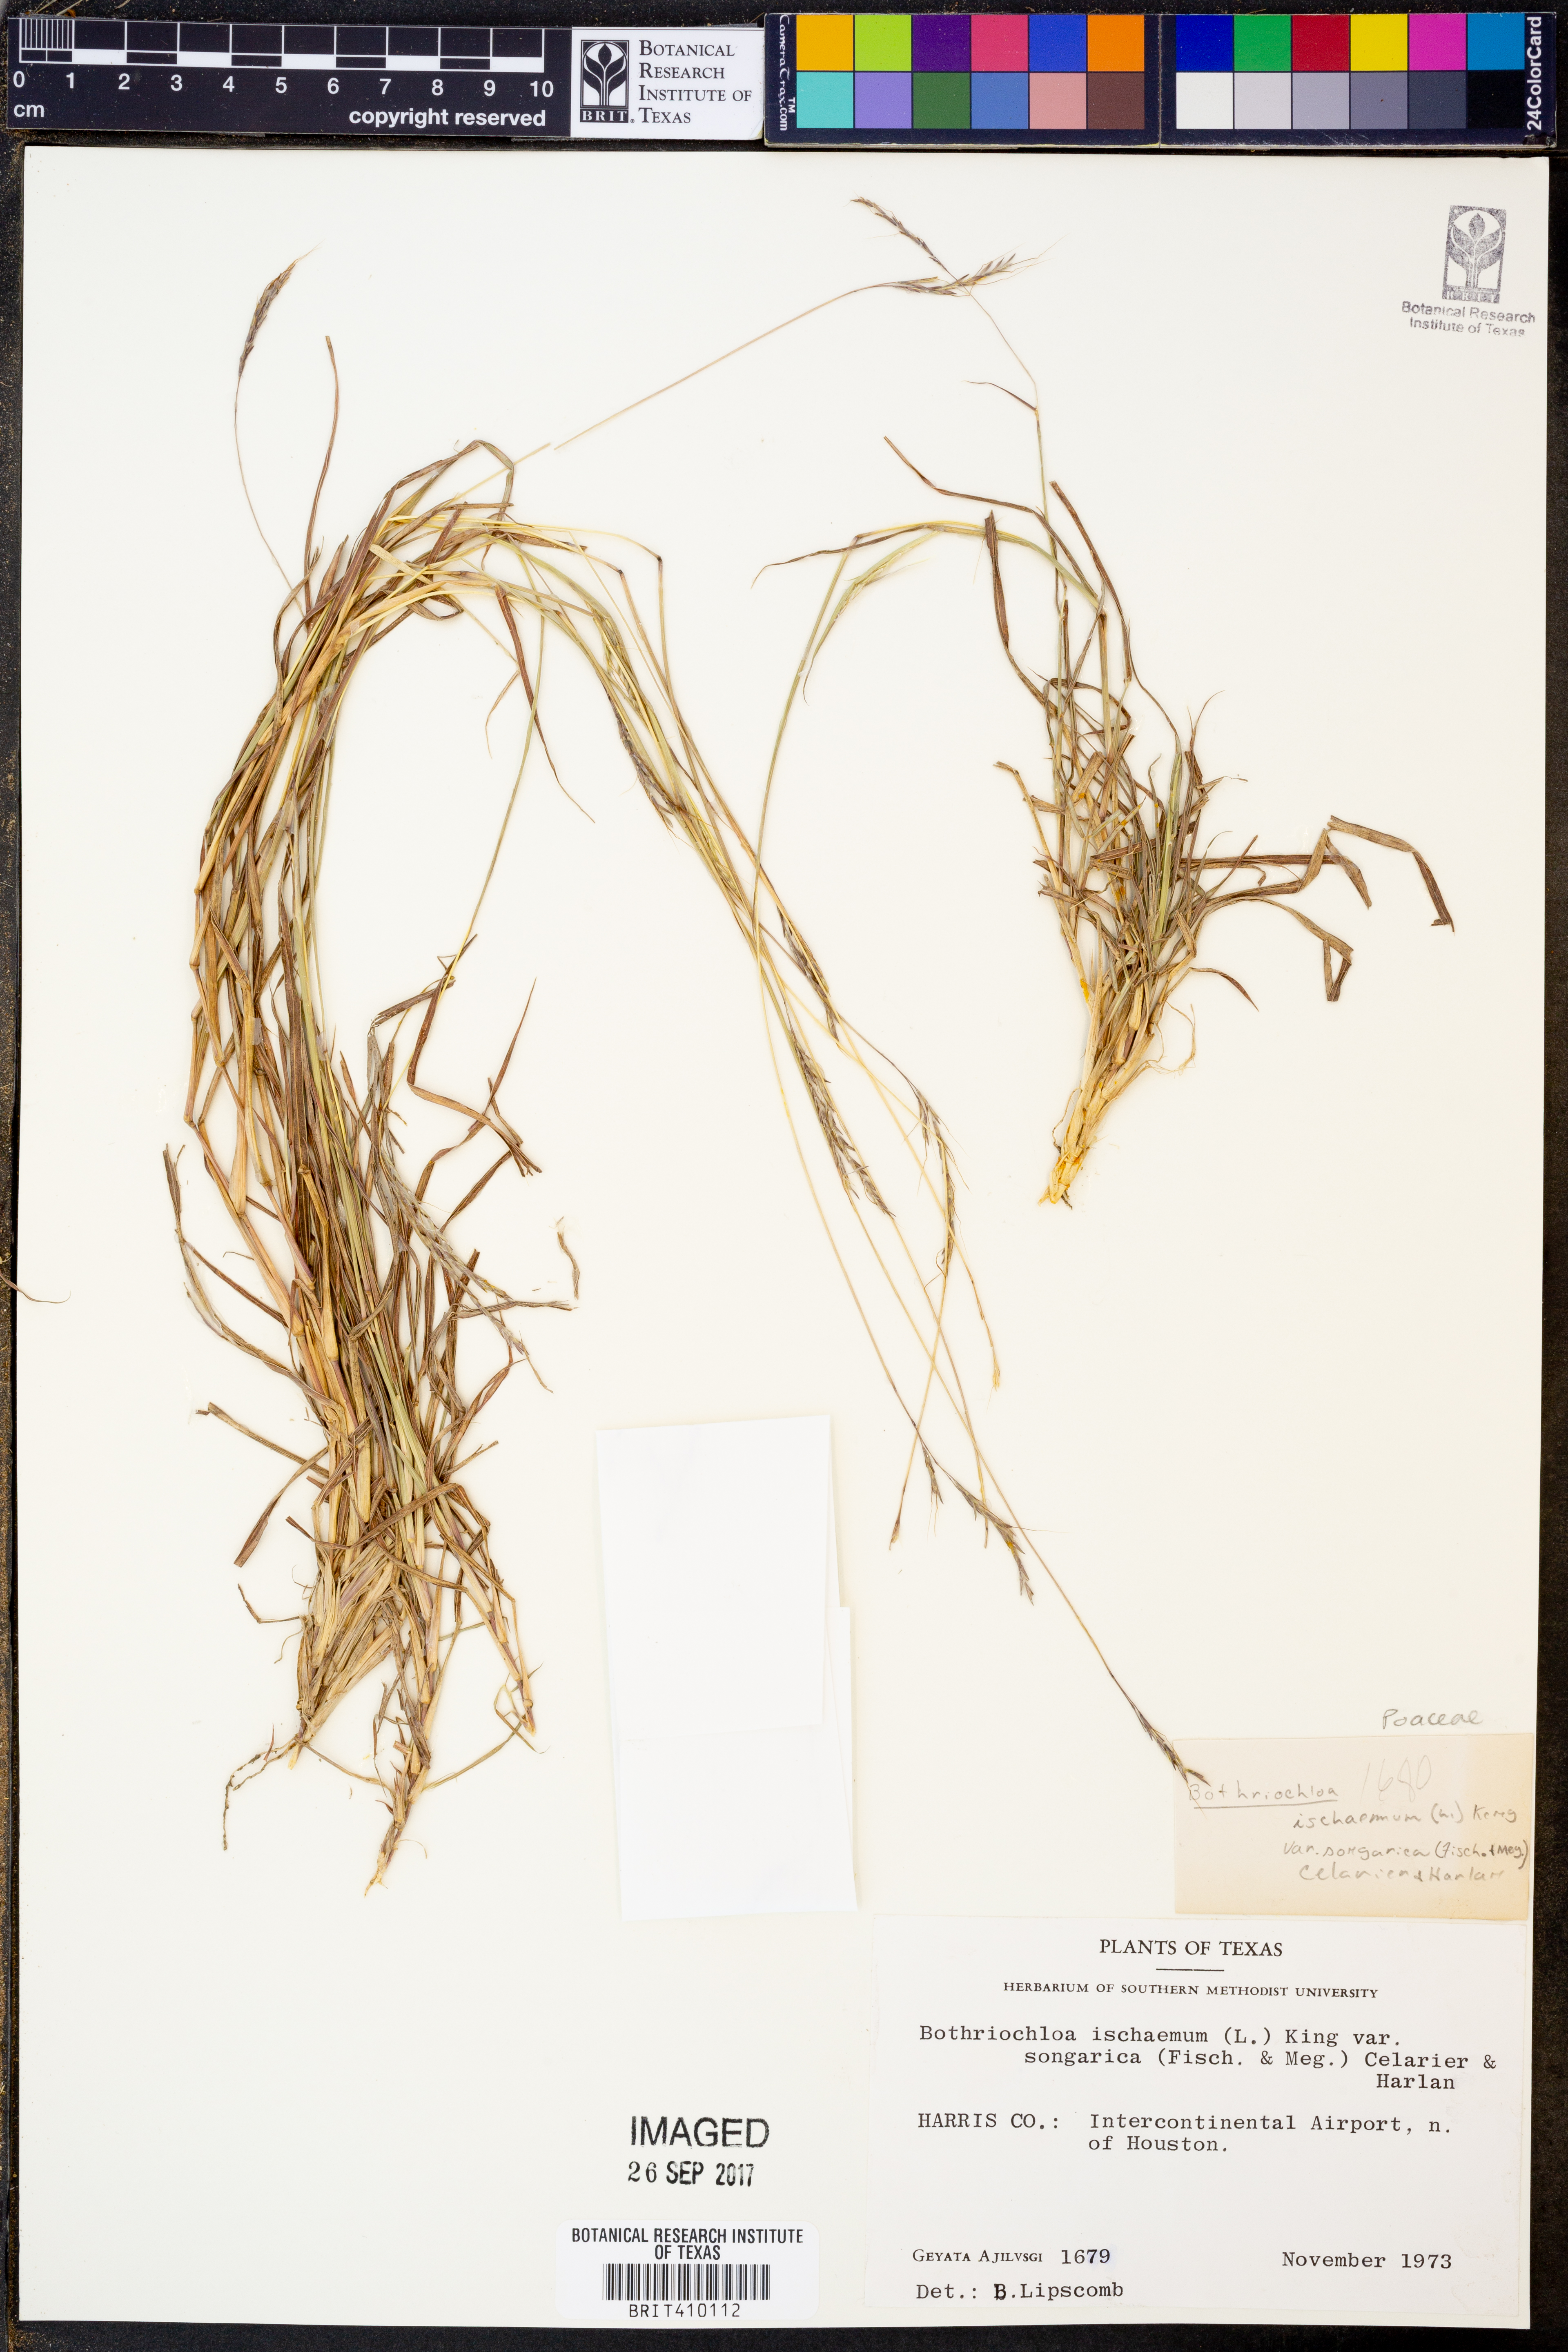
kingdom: Plantae
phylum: Tracheophyta
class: Liliopsida
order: Poales
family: Poaceae
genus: Bothriochloa
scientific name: Bothriochloa ischaemum
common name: Yellow bluestem
